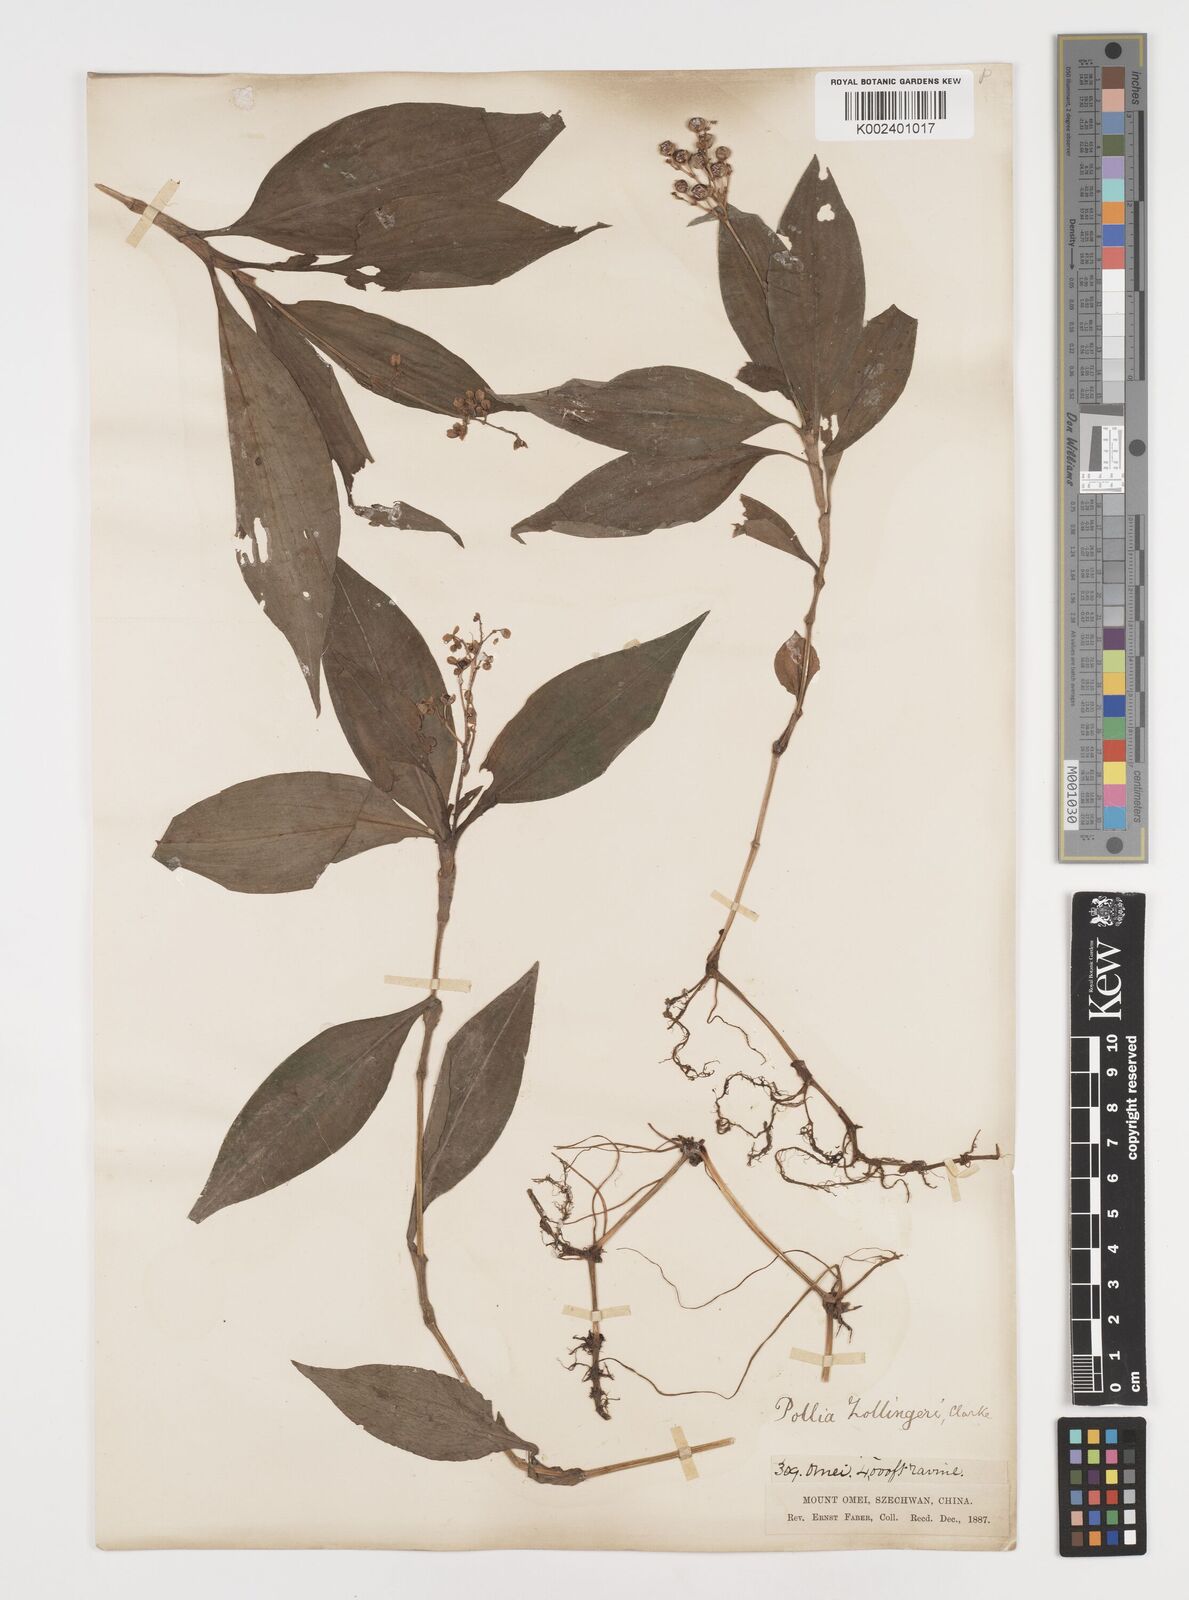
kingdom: Plantae
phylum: Tracheophyta
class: Liliopsida
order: Commelinales
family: Commelinaceae
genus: Pollia
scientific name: Pollia zollingeri
